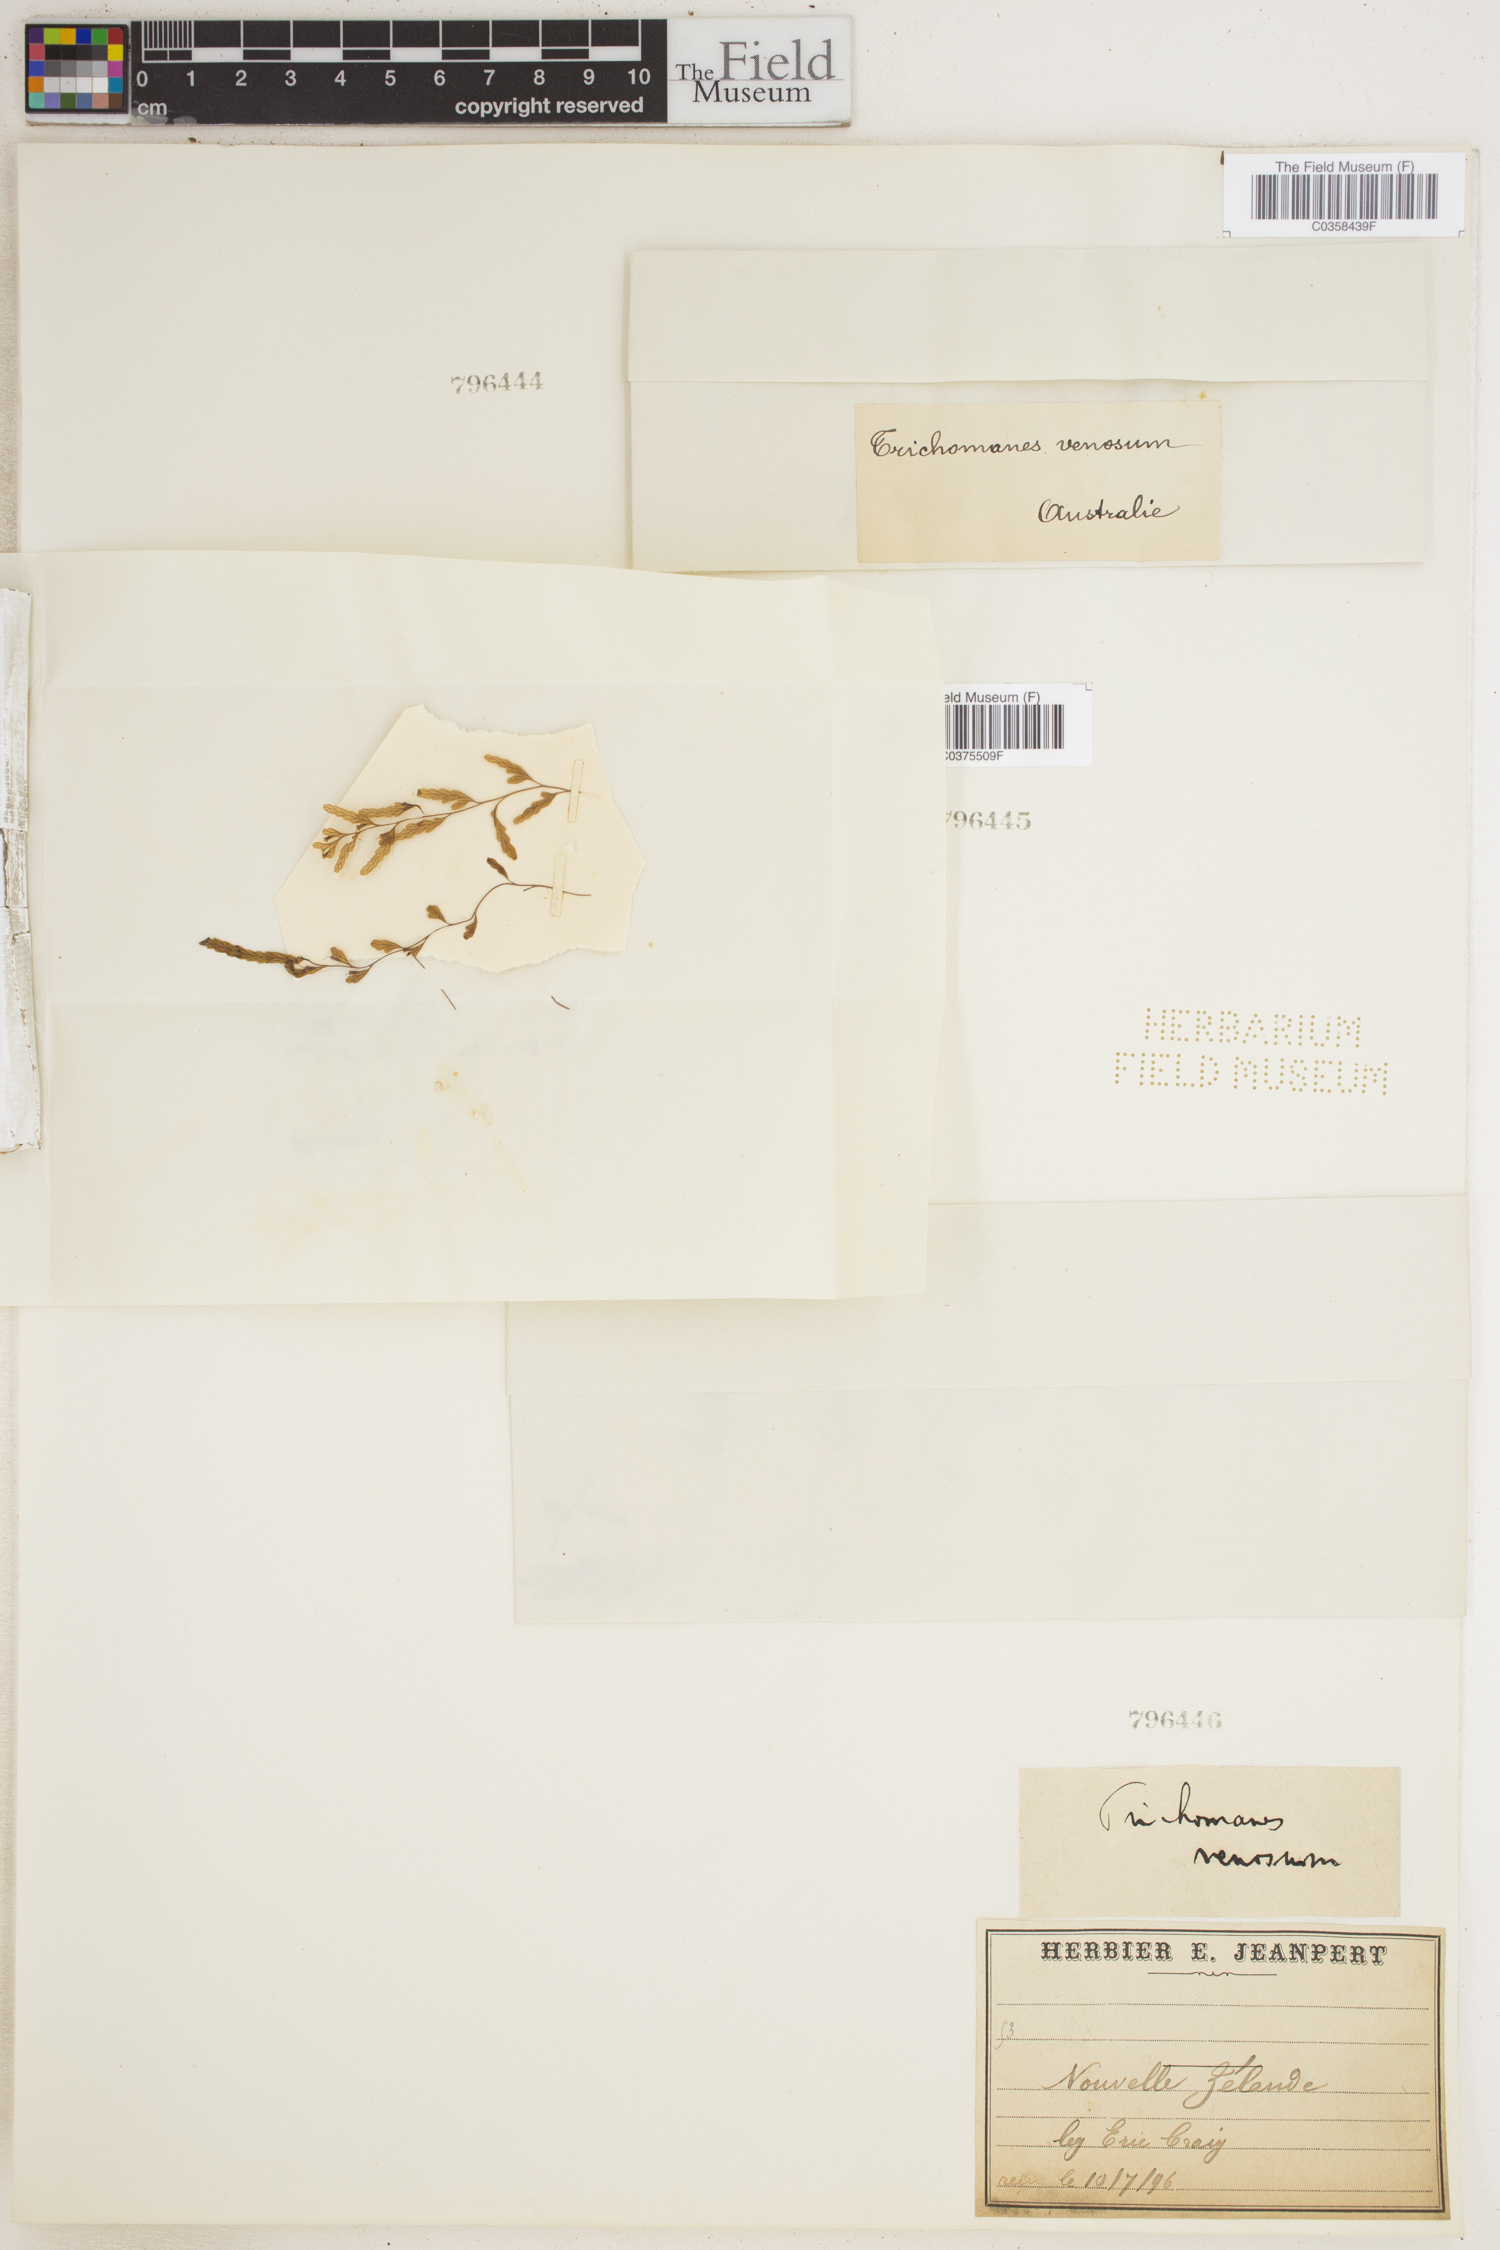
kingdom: Plantae
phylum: Tracheophyta
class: Polypodiopsida
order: Hymenophyllales
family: Hymenophyllaceae
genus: Trichomanes
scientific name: Trichomanes
